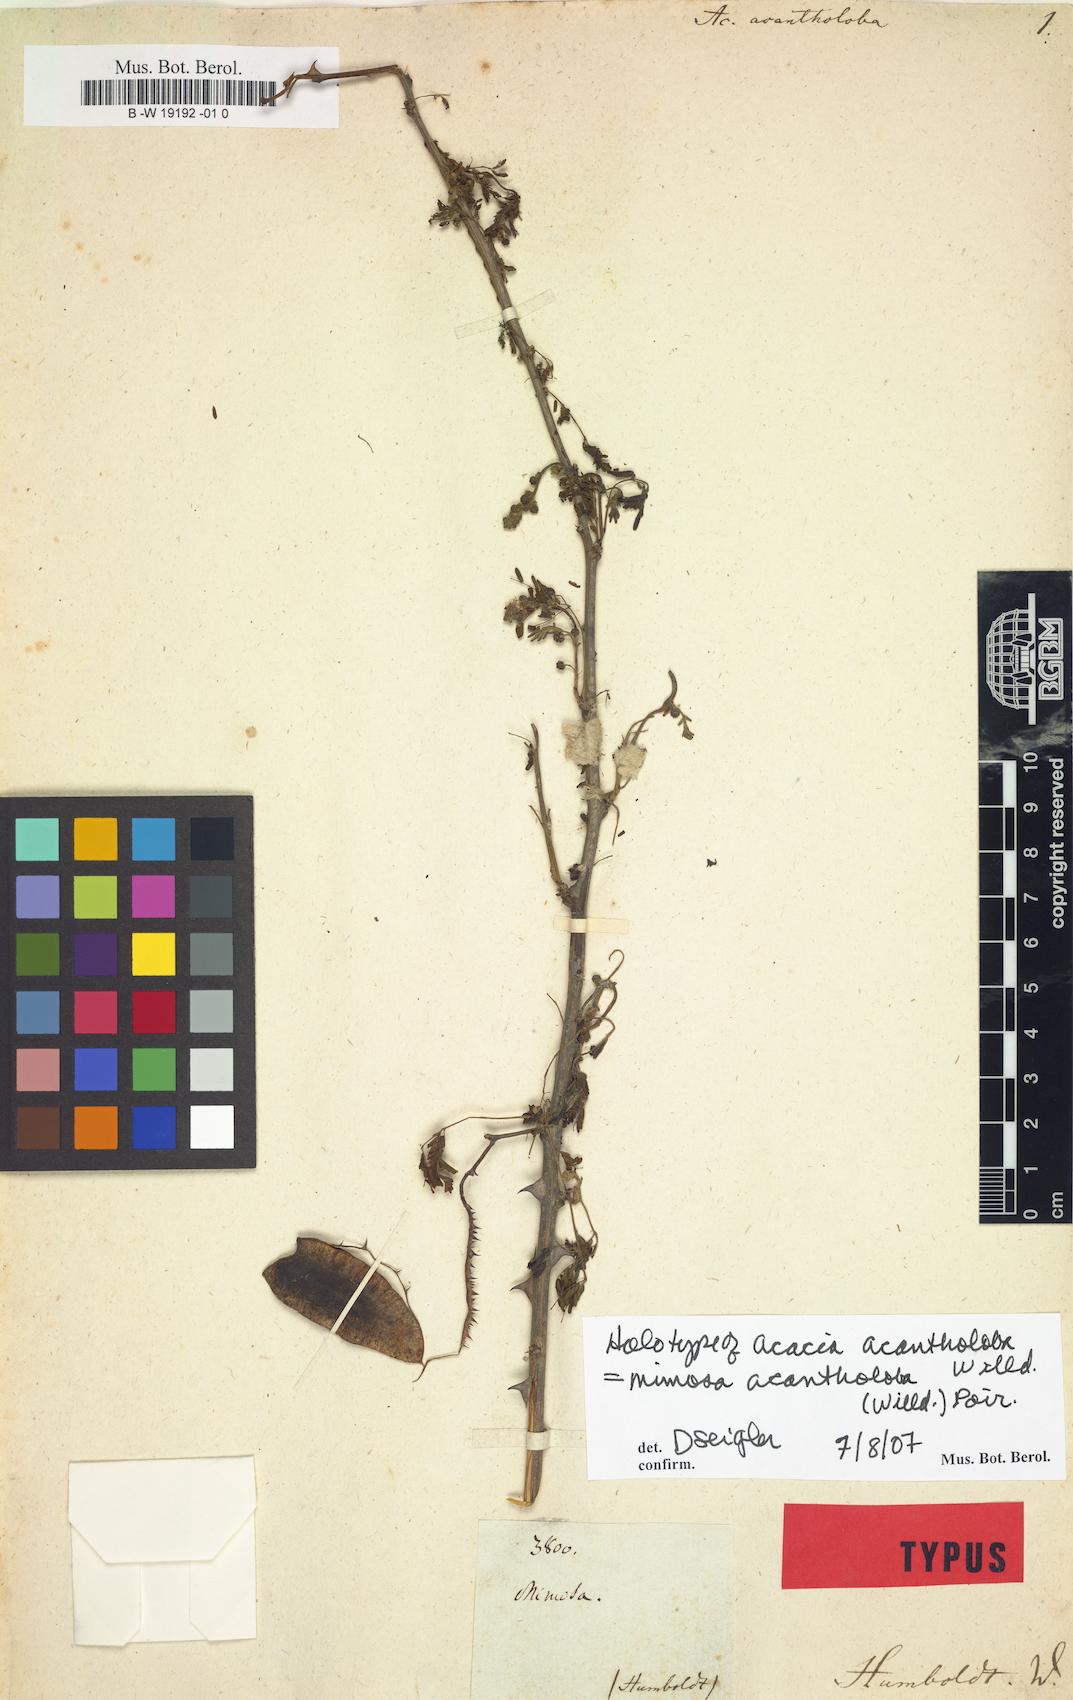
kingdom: Plantae
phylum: Tracheophyta
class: Magnoliopsida
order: Fabales
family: Fabaceae
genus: Mimosa
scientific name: Mimosa acantholoba
